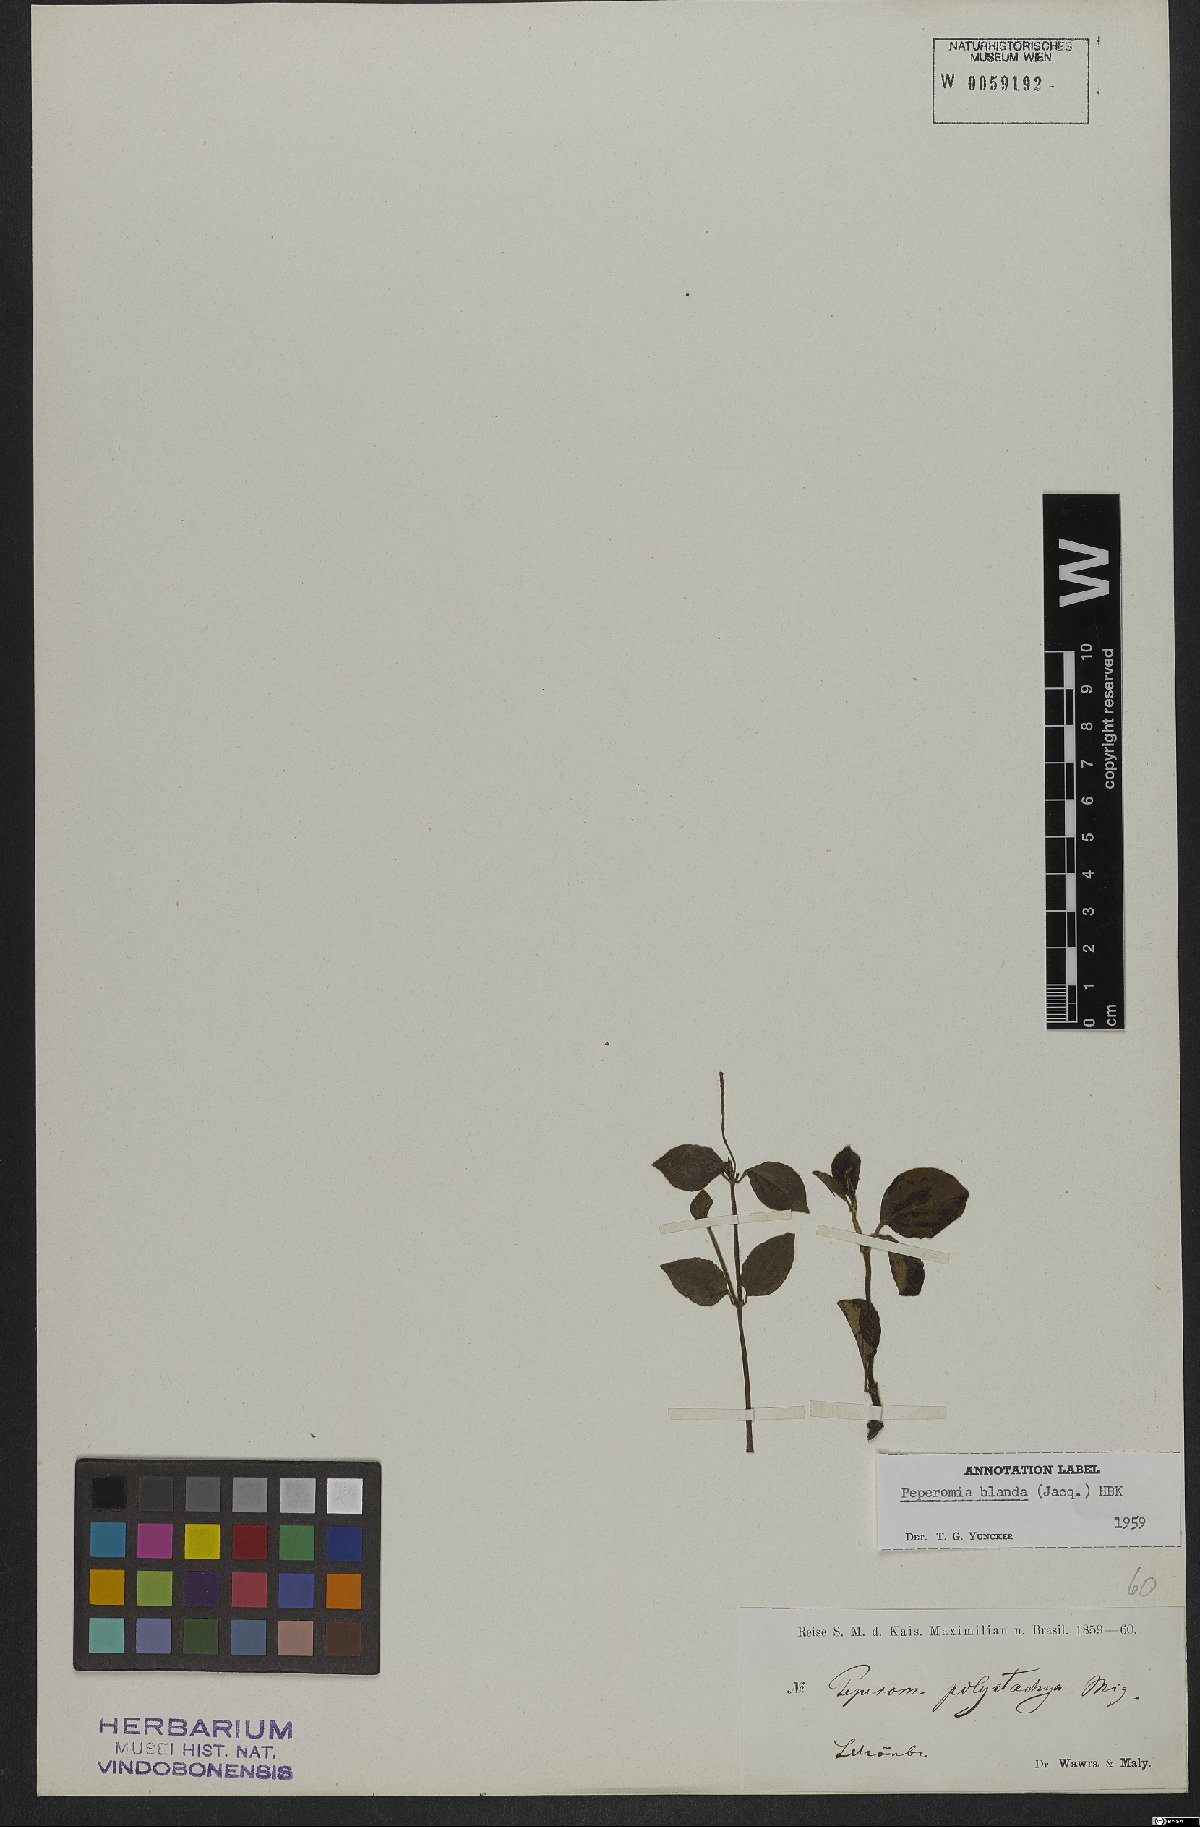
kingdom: Plantae
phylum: Tracheophyta
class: Magnoliopsida
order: Piperales
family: Piperaceae
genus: Peperomia
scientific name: Peperomia blanda
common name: Arid-land peperomia
